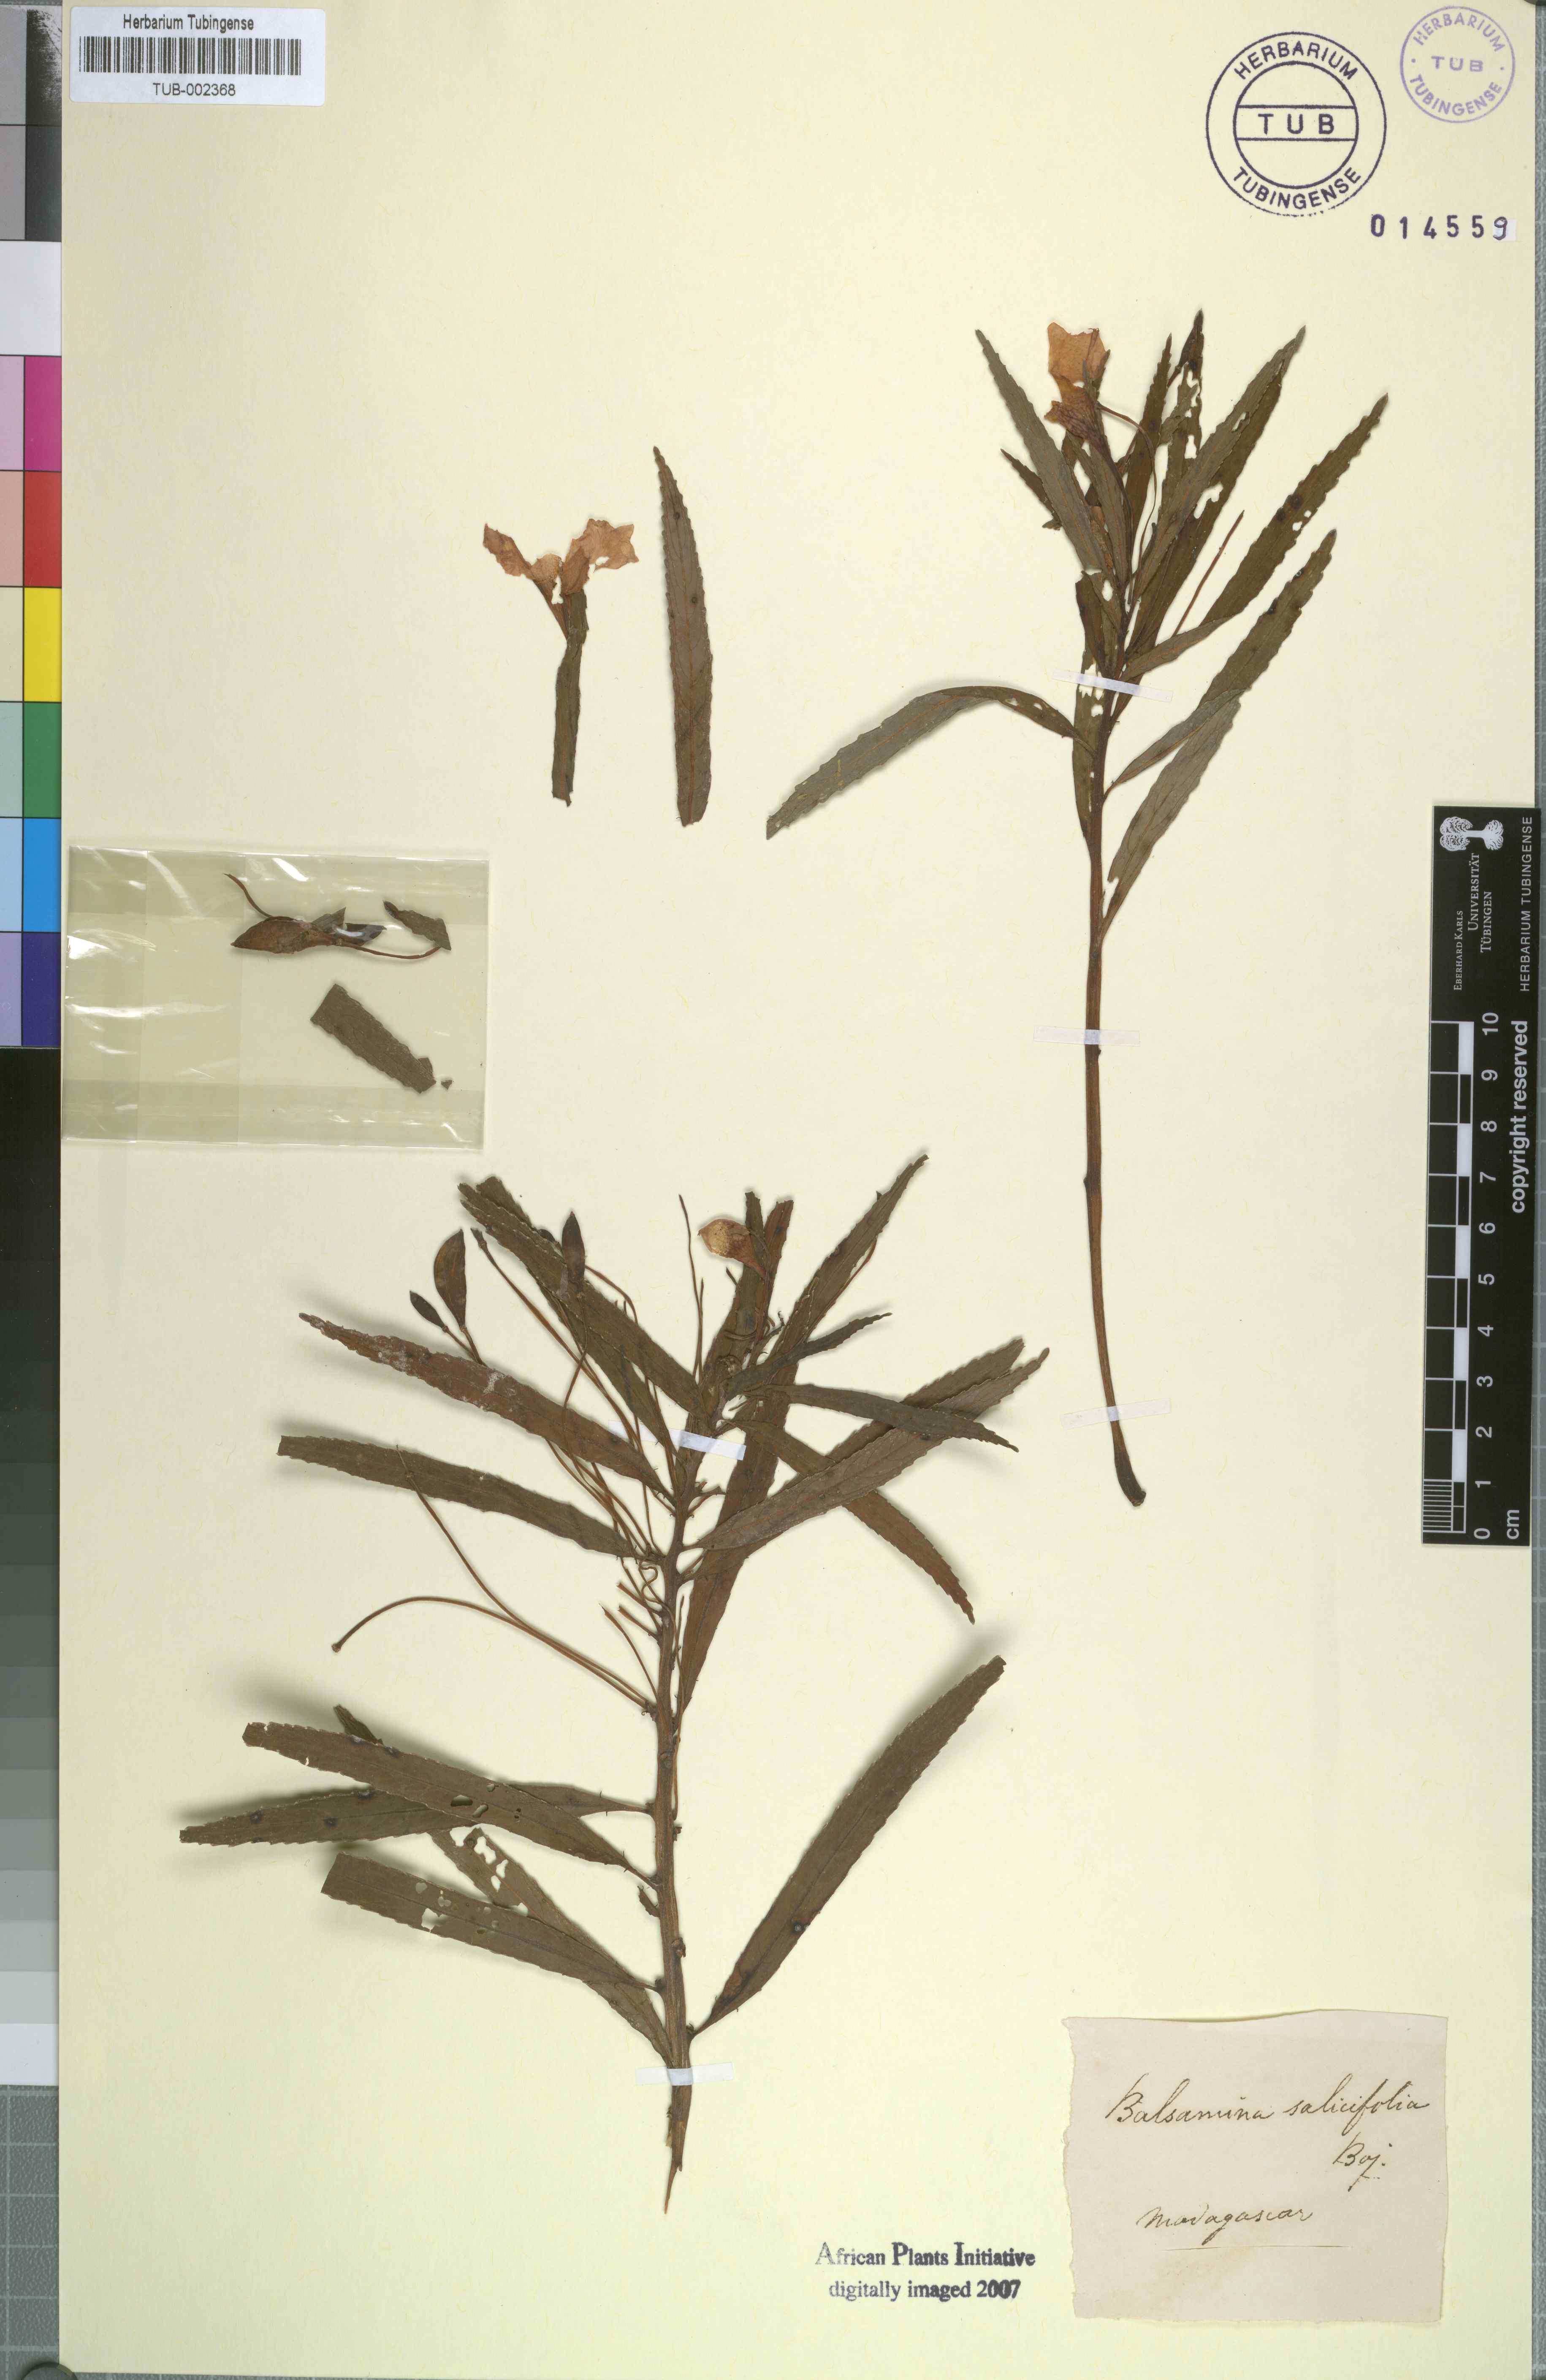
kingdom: Plantae
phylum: Tracheophyta
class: Magnoliopsida
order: Ericales
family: Balsaminaceae
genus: Impatiens
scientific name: Impatiens rutenbergii
